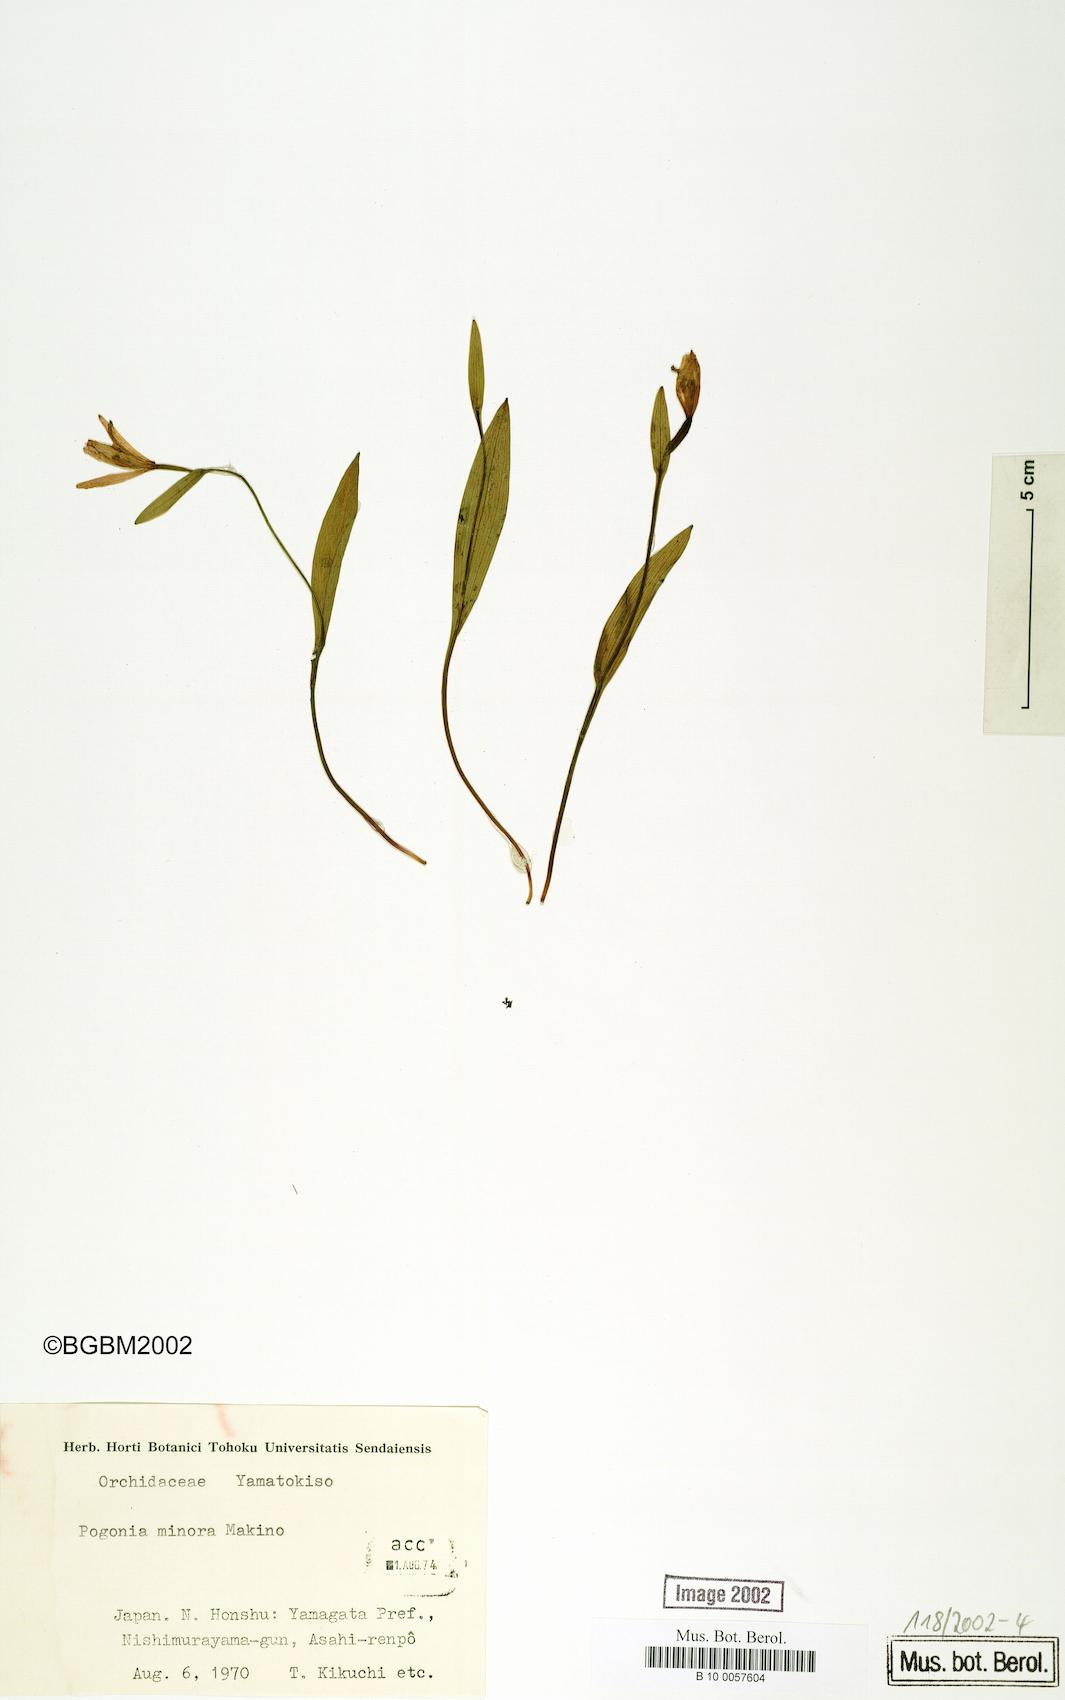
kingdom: Plantae
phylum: Tracheophyta
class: Liliopsida
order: Asparagales
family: Orchidaceae
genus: Pogonia
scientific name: Pogonia minor
